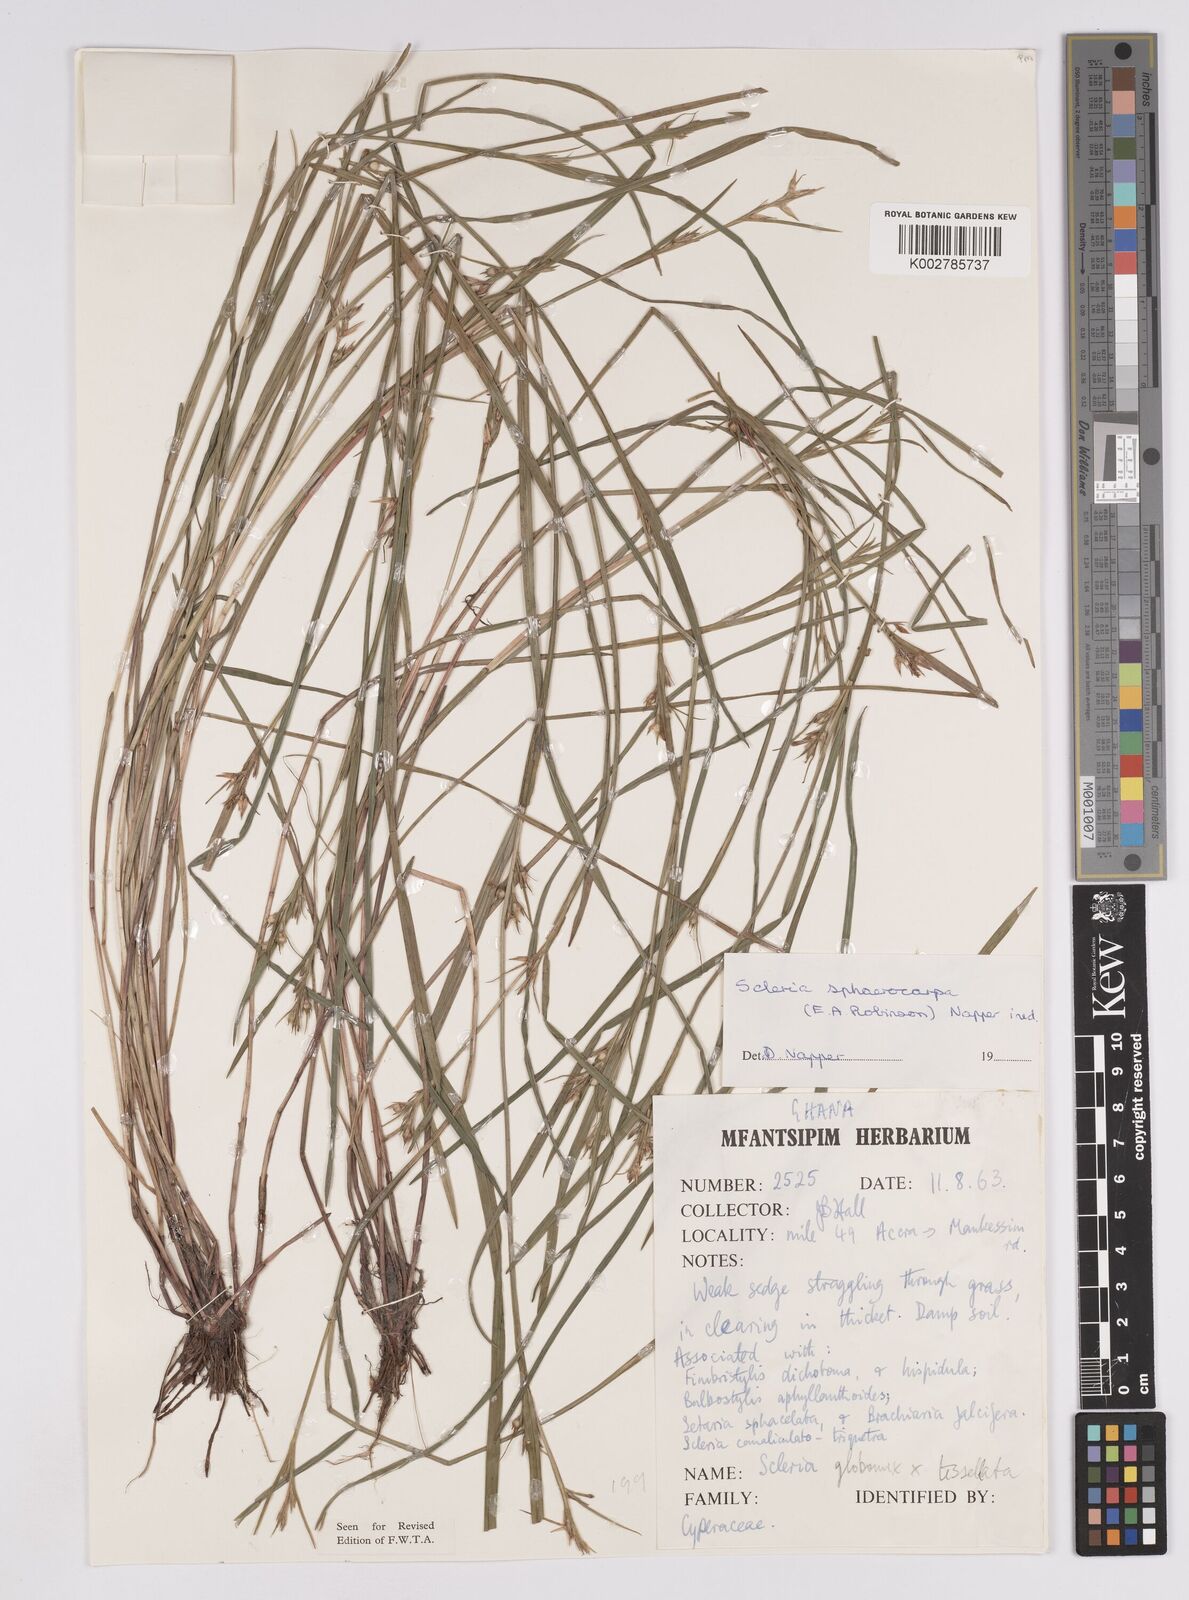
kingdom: Plantae
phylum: Tracheophyta
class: Liliopsida
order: Poales
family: Cyperaceae
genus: Scleria
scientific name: Scleria tessellata
